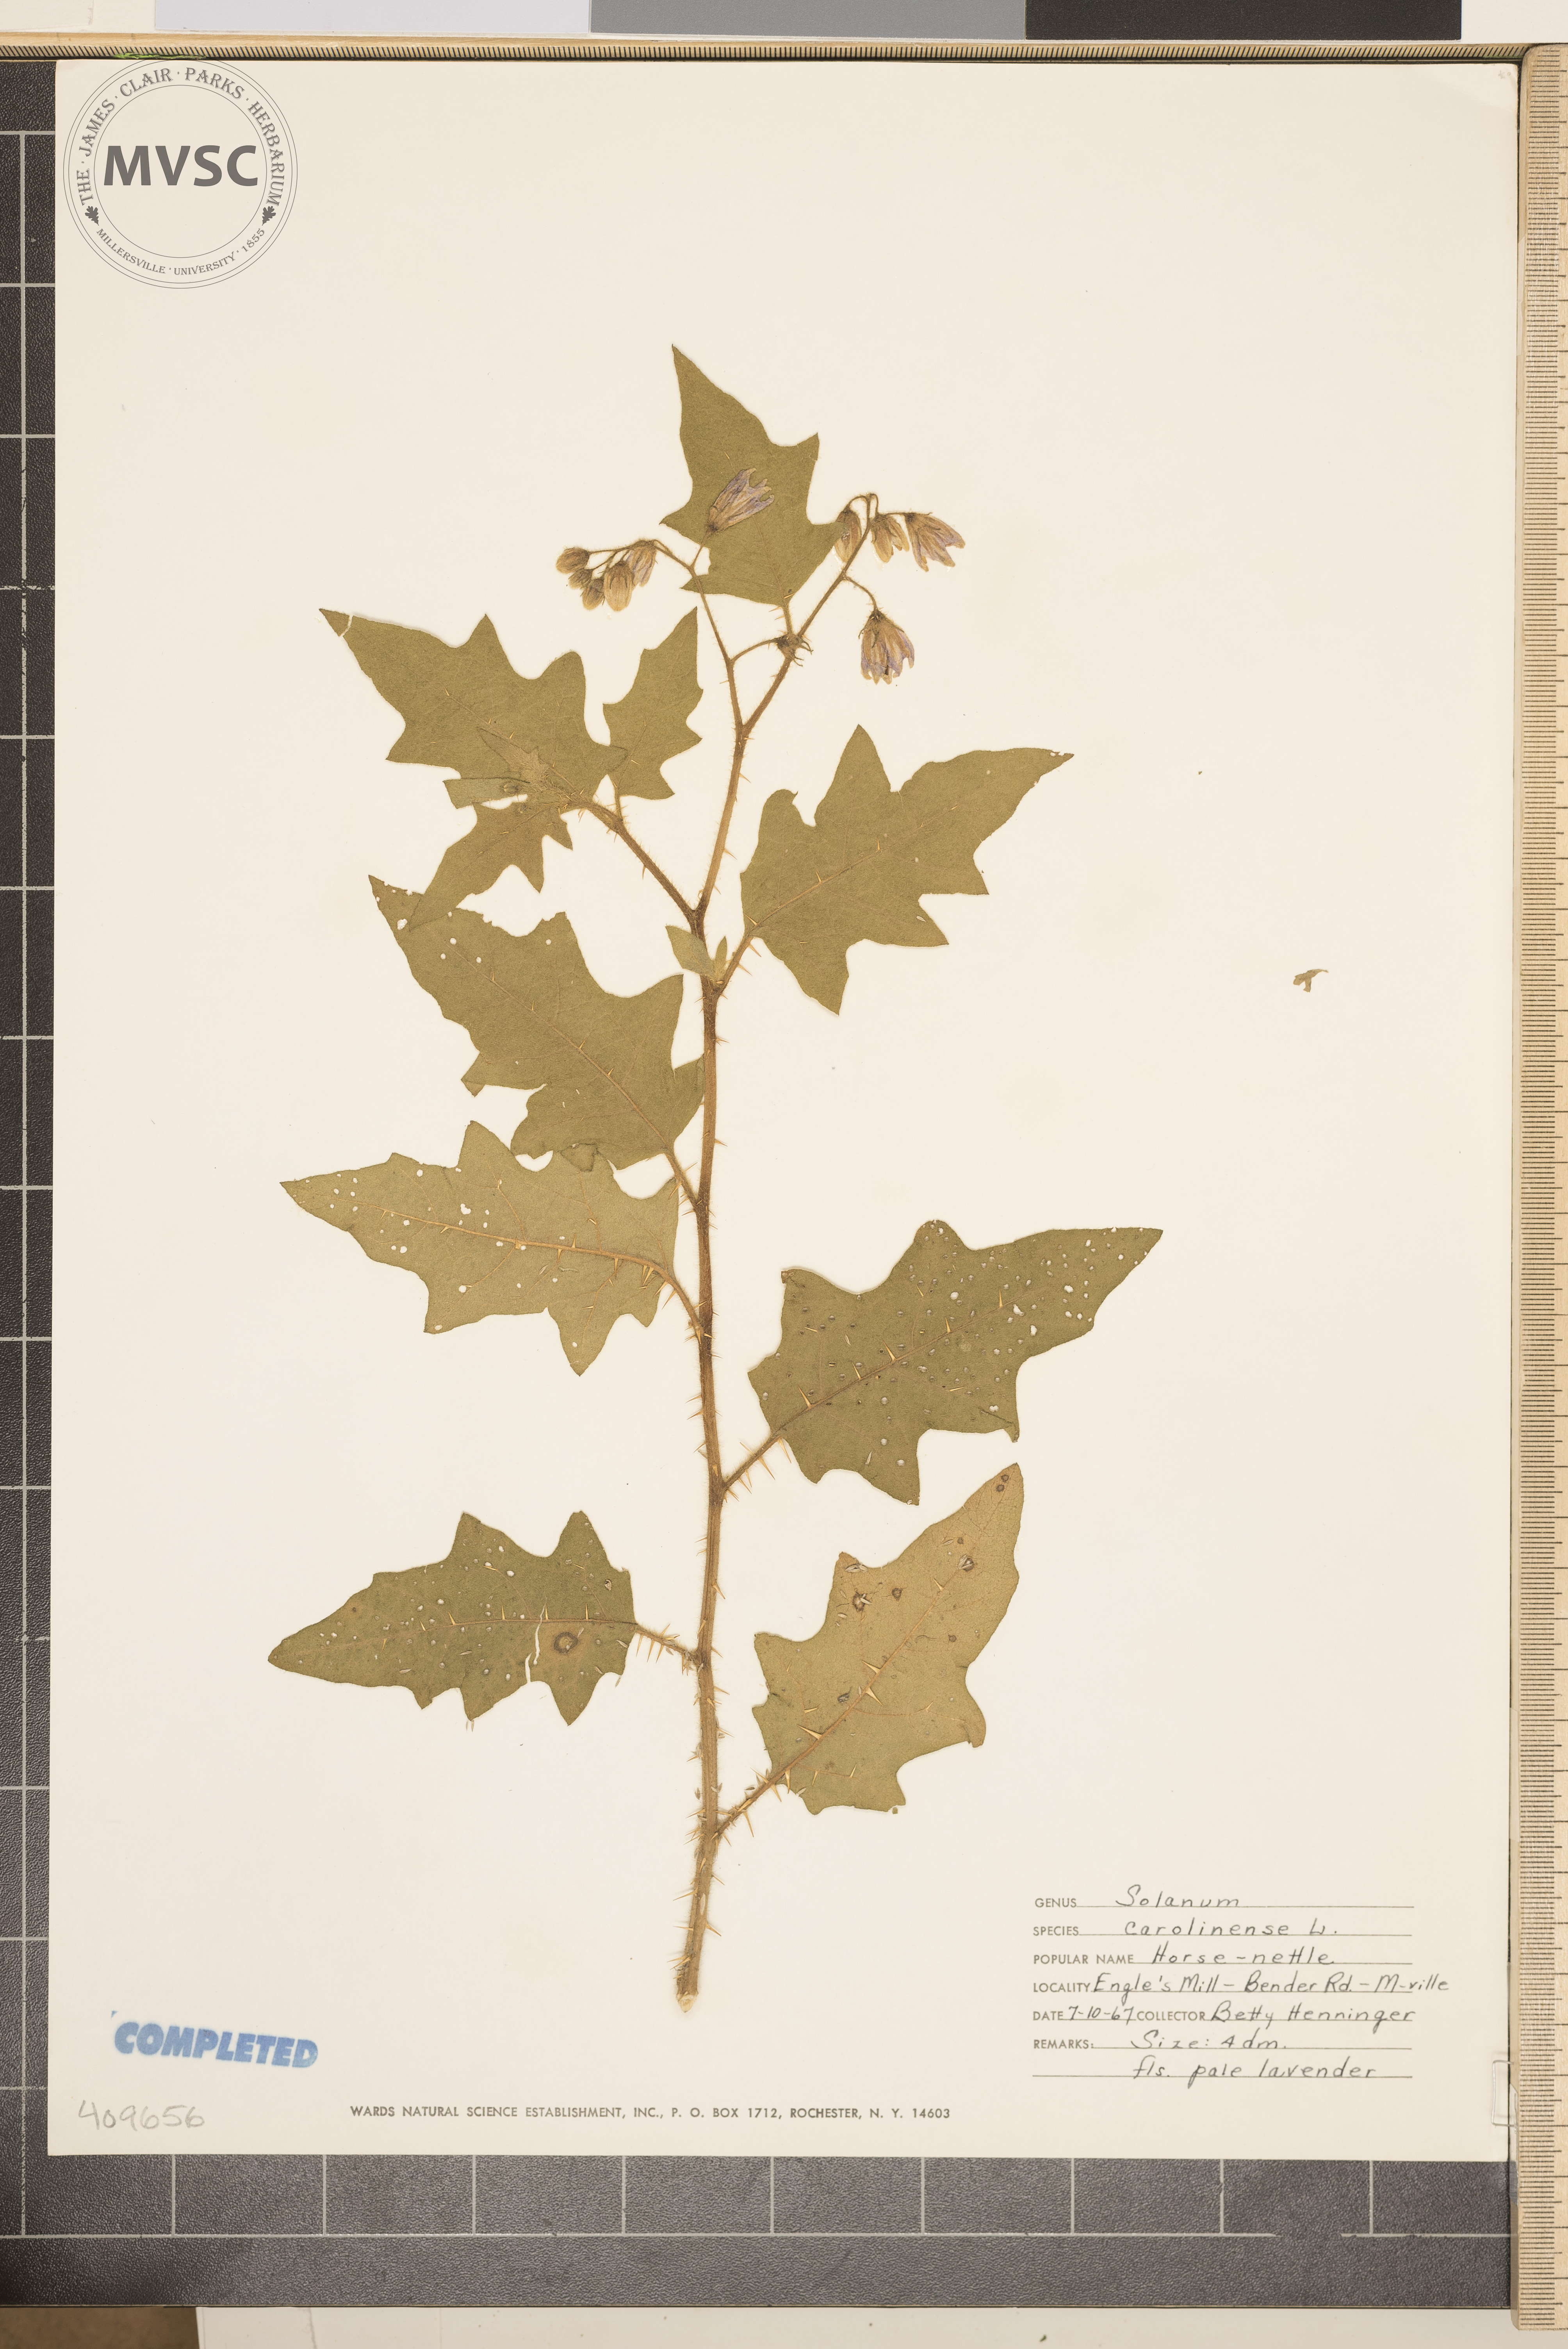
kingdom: Plantae
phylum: Tracheophyta
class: Magnoliopsida
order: Solanales
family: Solanaceae
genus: Solanum
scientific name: Solanum carolinense
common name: Horse-nettle
